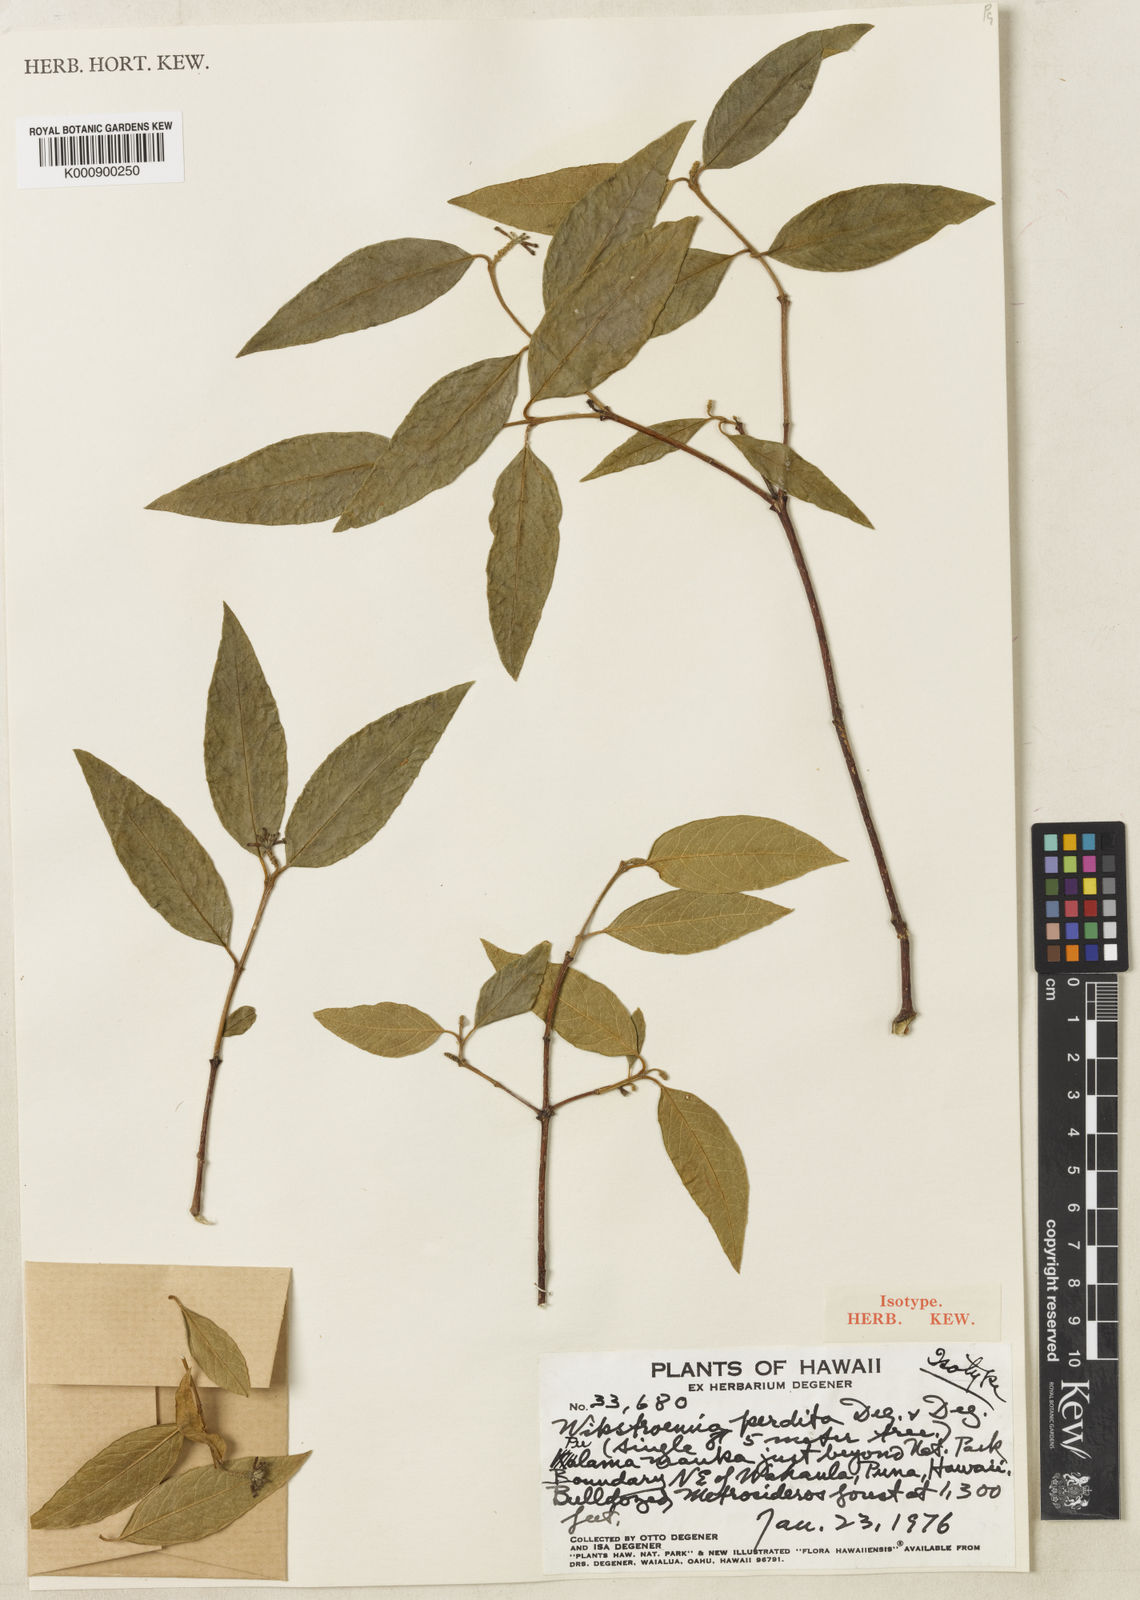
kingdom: Plantae
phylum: Tracheophyta
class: Magnoliopsida
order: Malvales
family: Thymelaeaceae
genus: Wikstroemia
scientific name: Wikstroemia sandwicensis
